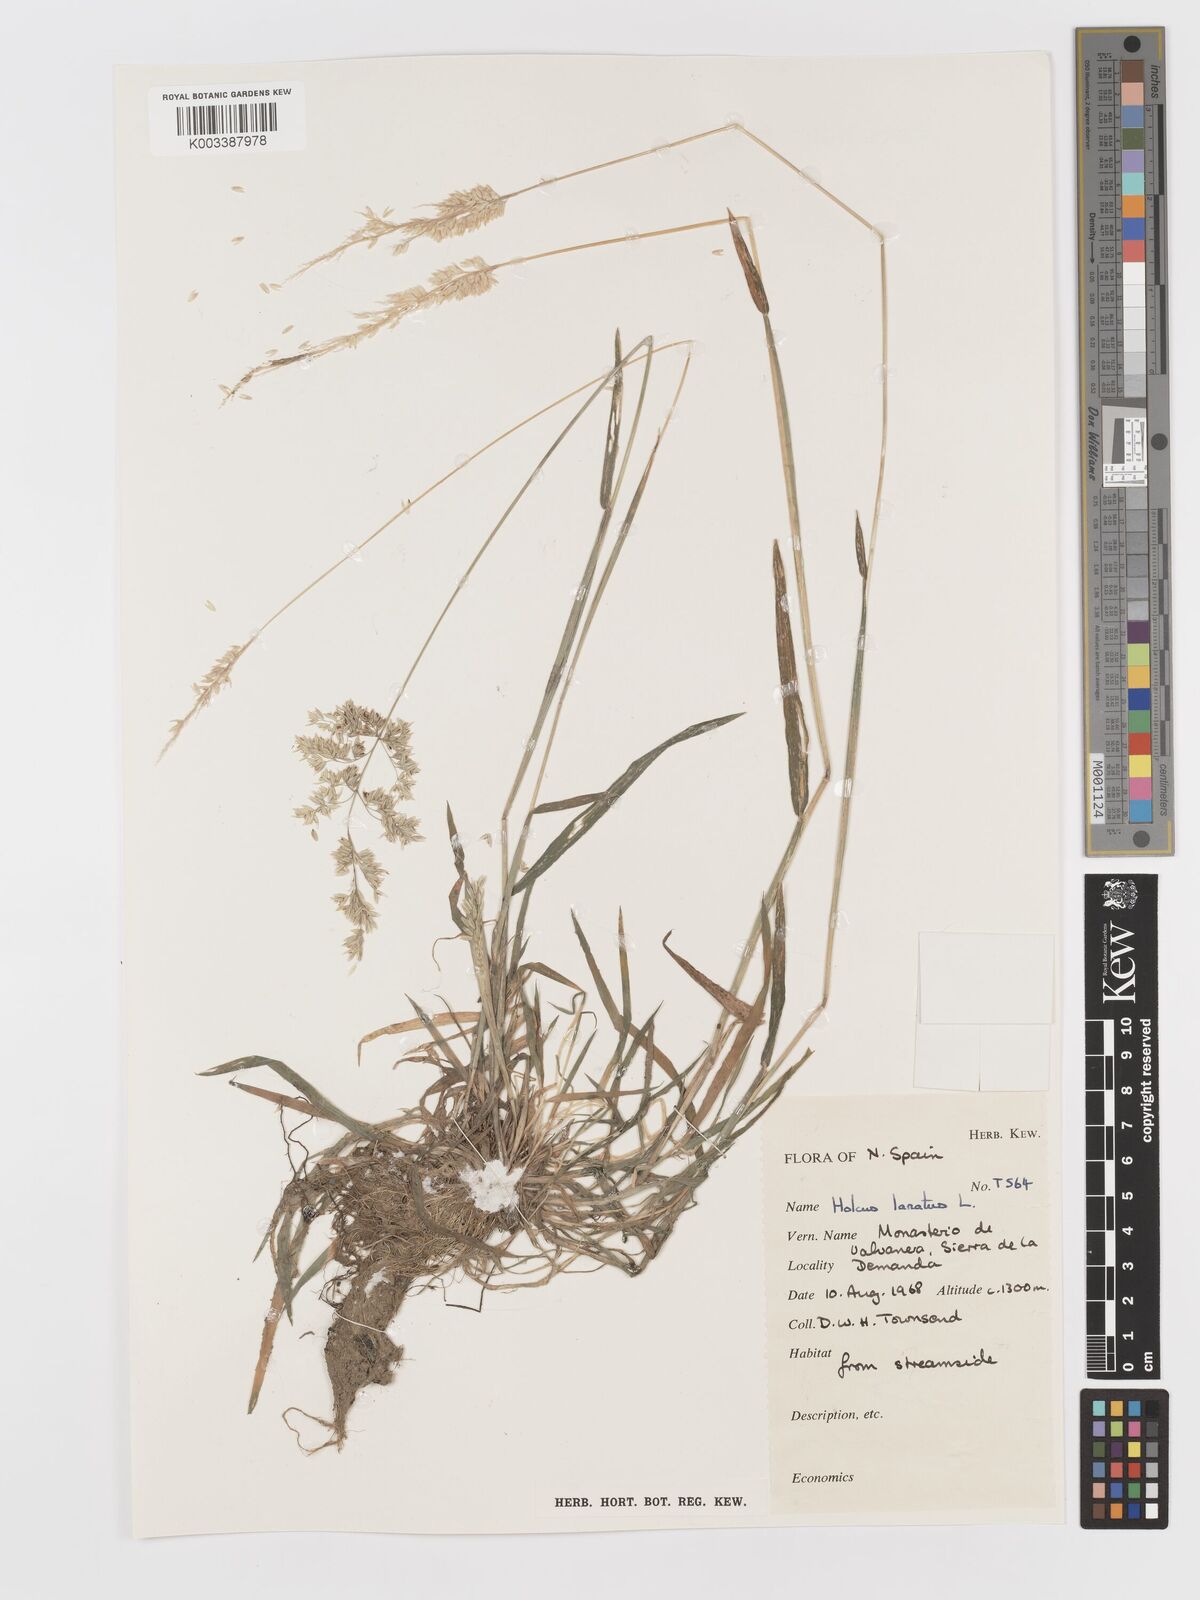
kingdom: Plantae
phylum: Tracheophyta
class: Liliopsida
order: Poales
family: Poaceae
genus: Holcus
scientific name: Holcus lanatus
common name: Yorkshire-fog
